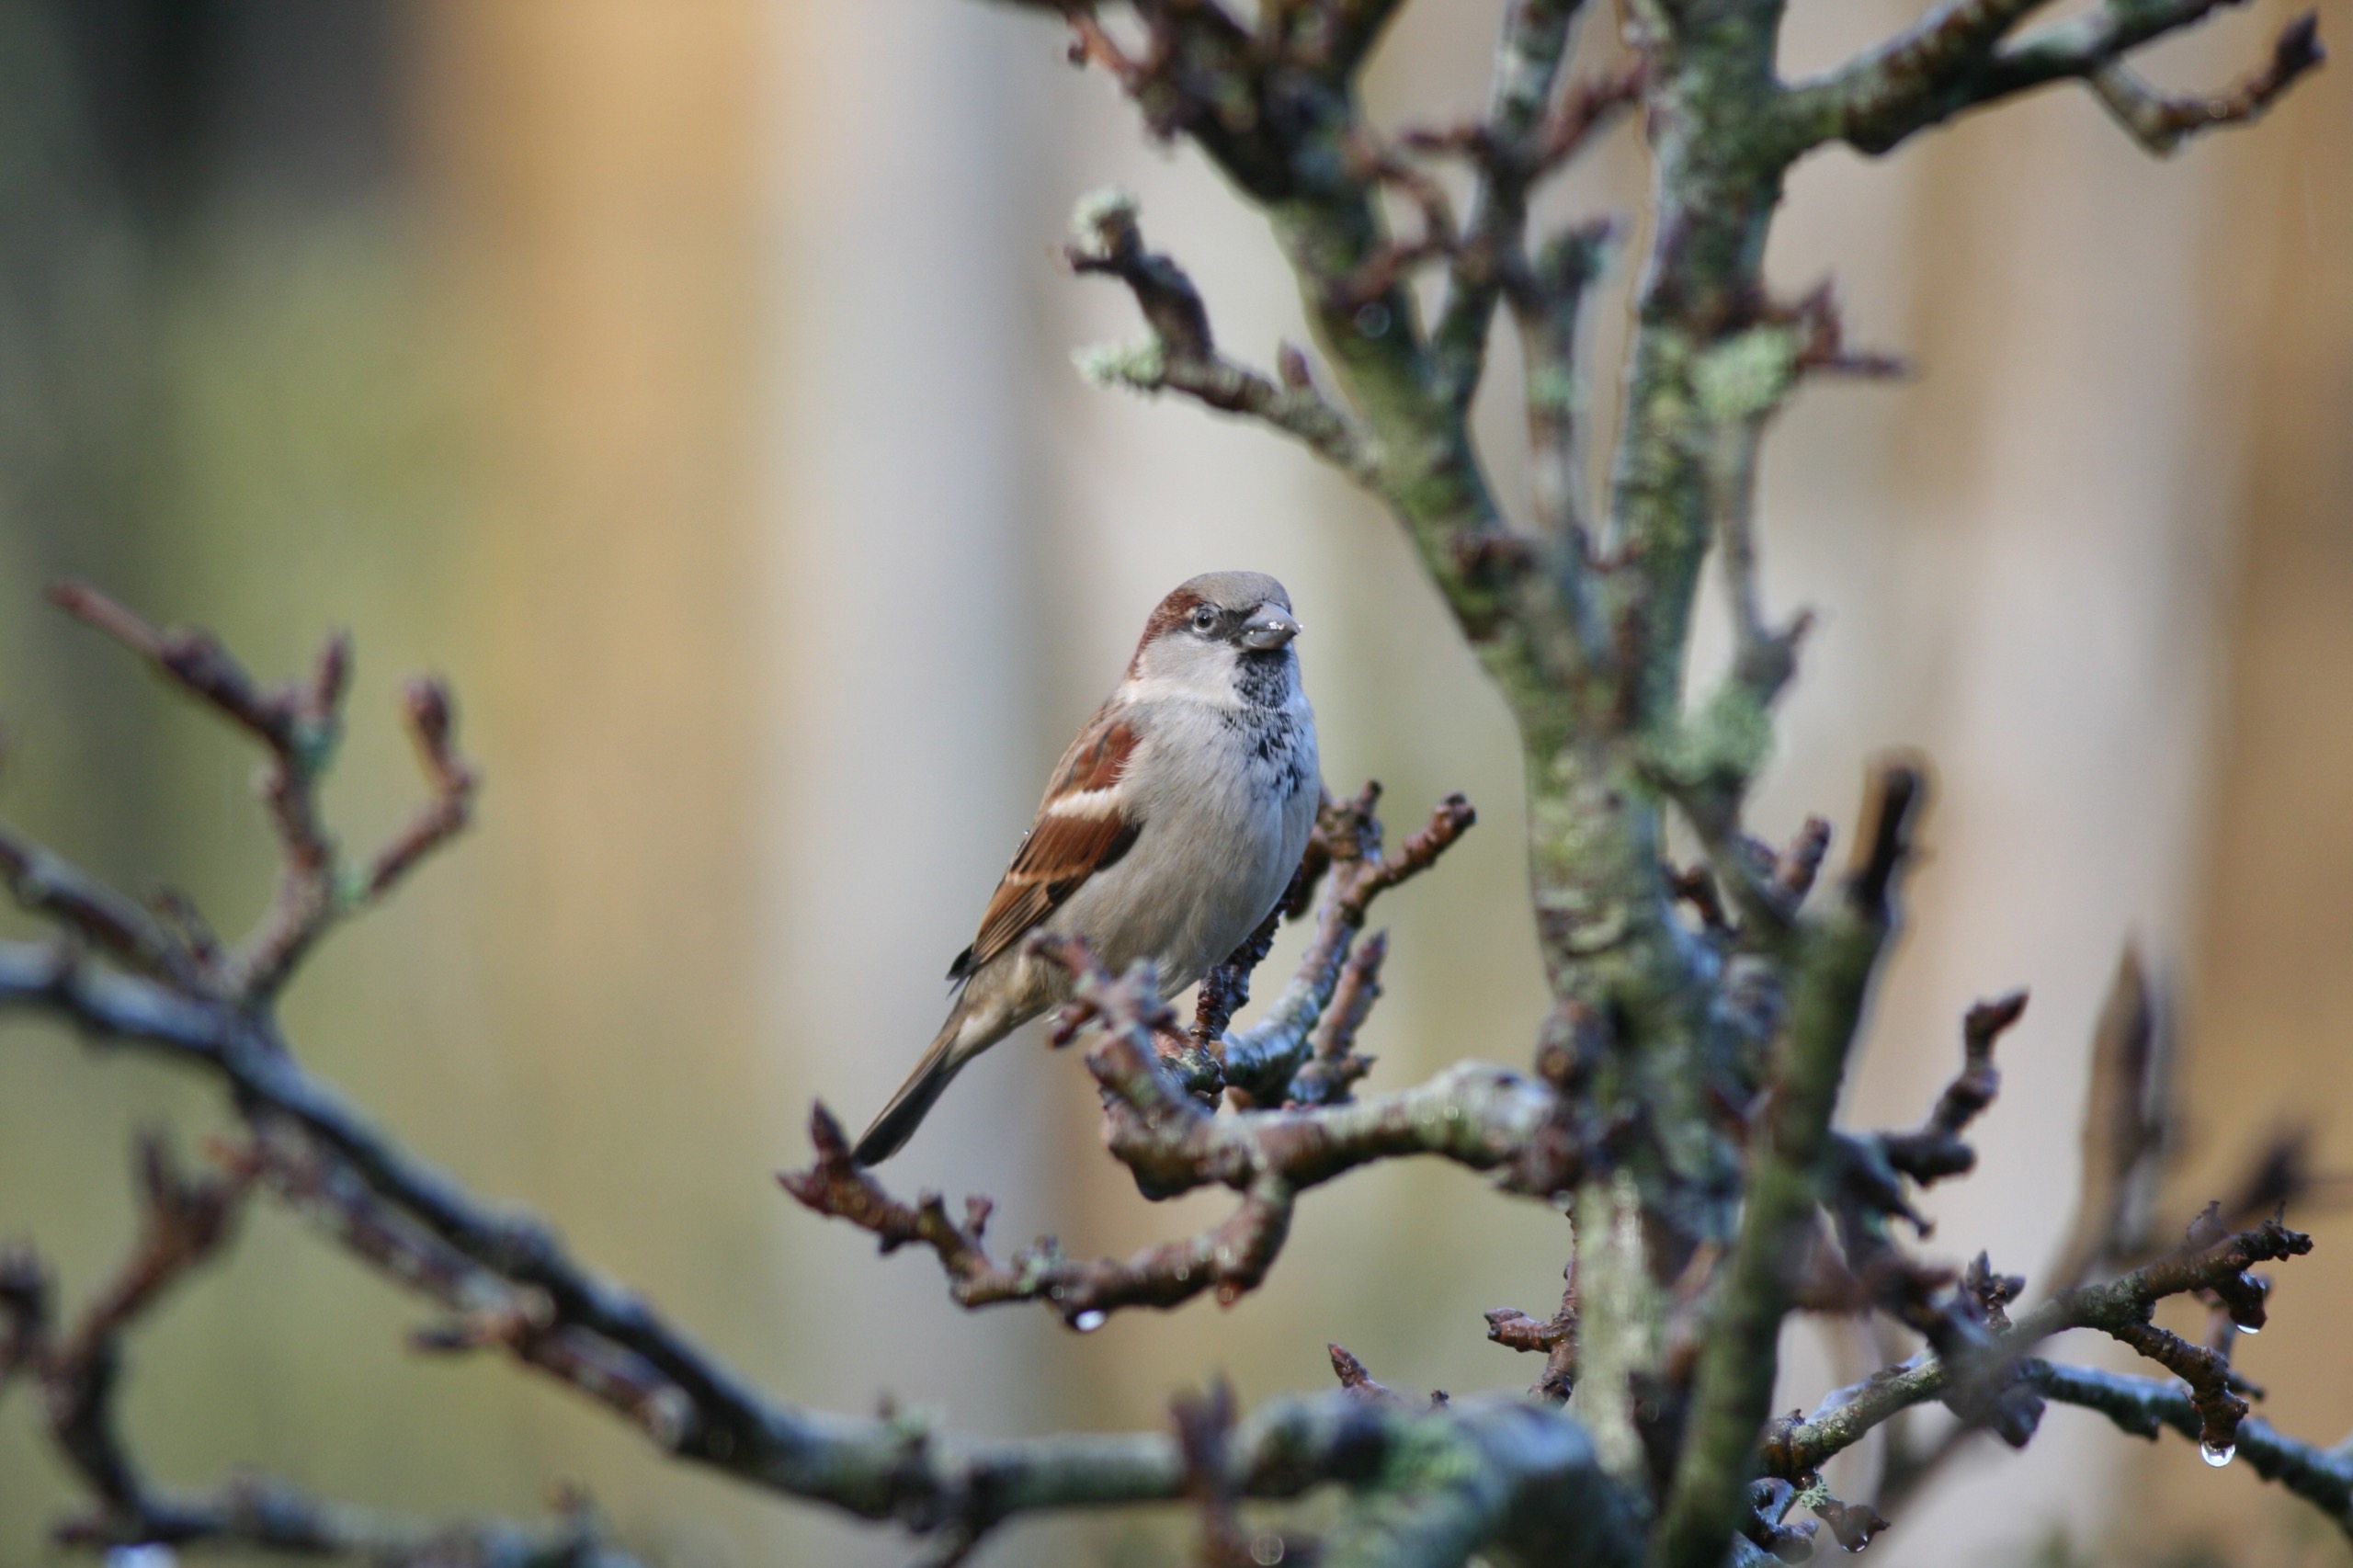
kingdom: Animalia
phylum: Chordata
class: Aves
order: Passeriformes
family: Passeridae
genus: Passer
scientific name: Passer domesticus
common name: Gråspurv
